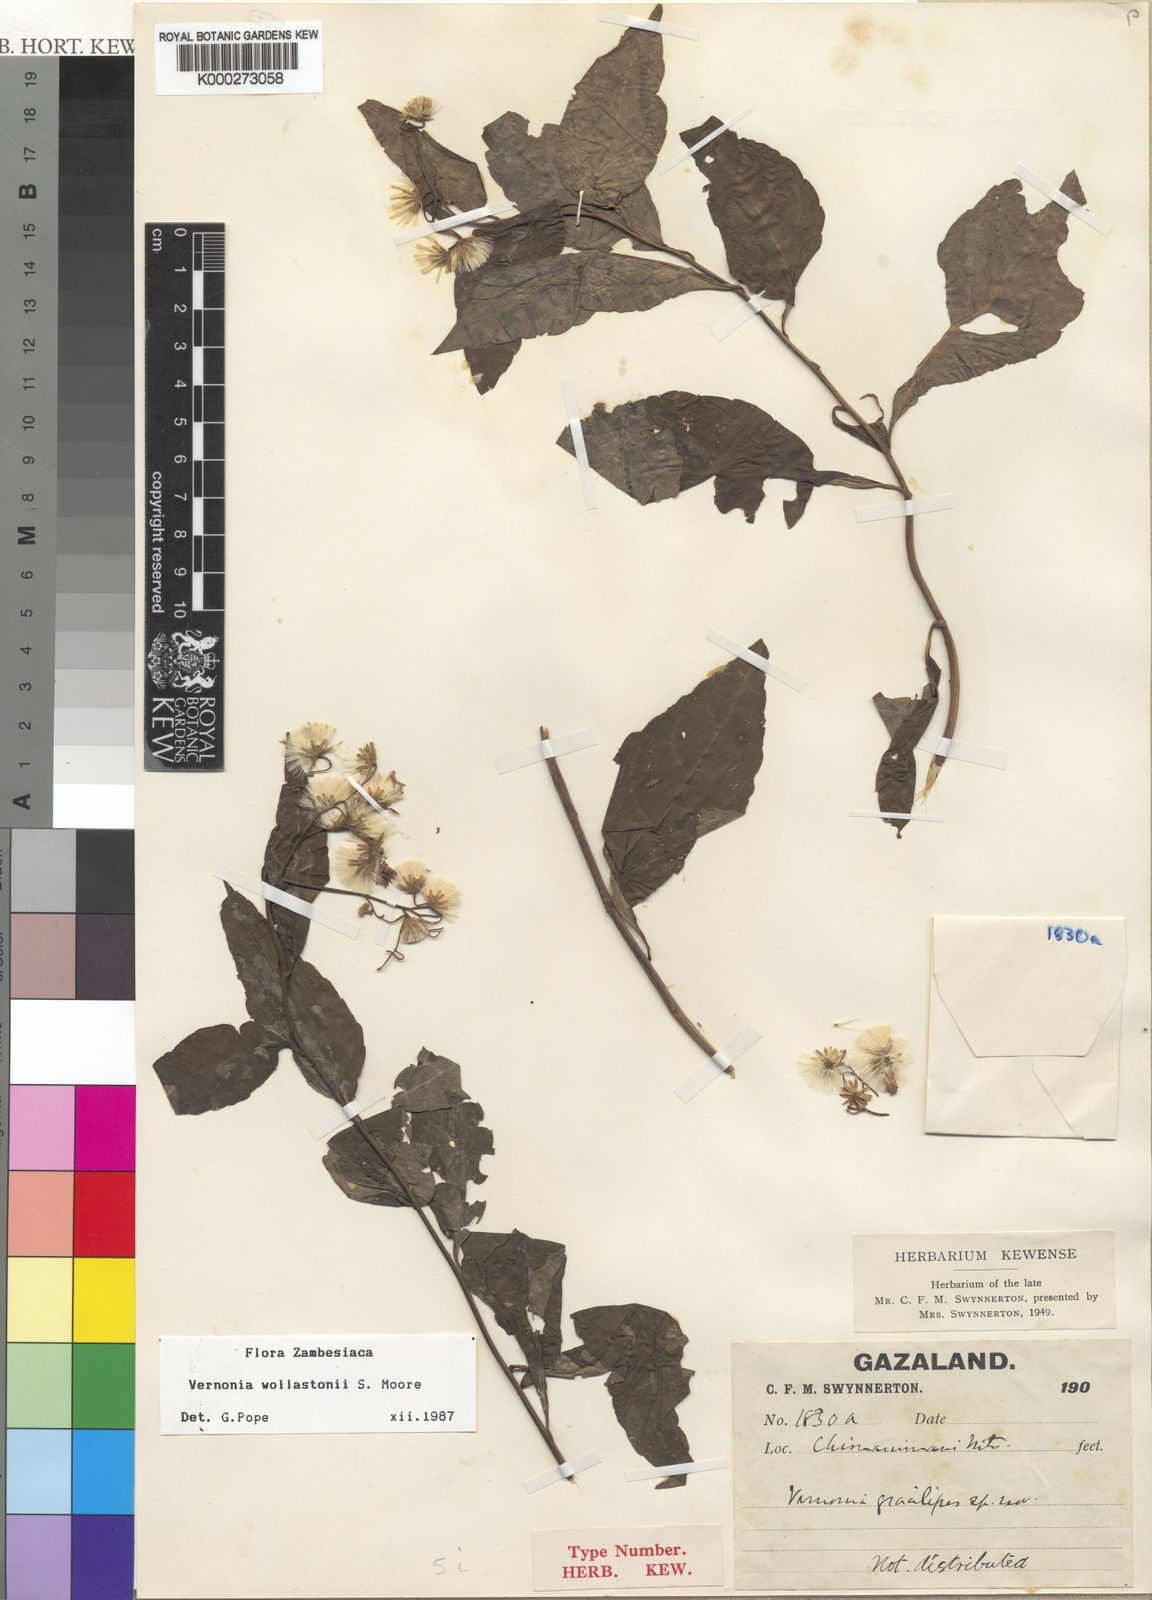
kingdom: Plantae
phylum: Tracheophyta
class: Magnoliopsida
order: Asterales
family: Asteraceae
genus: Cyanthillium
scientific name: Cyanthillium wollastonii
